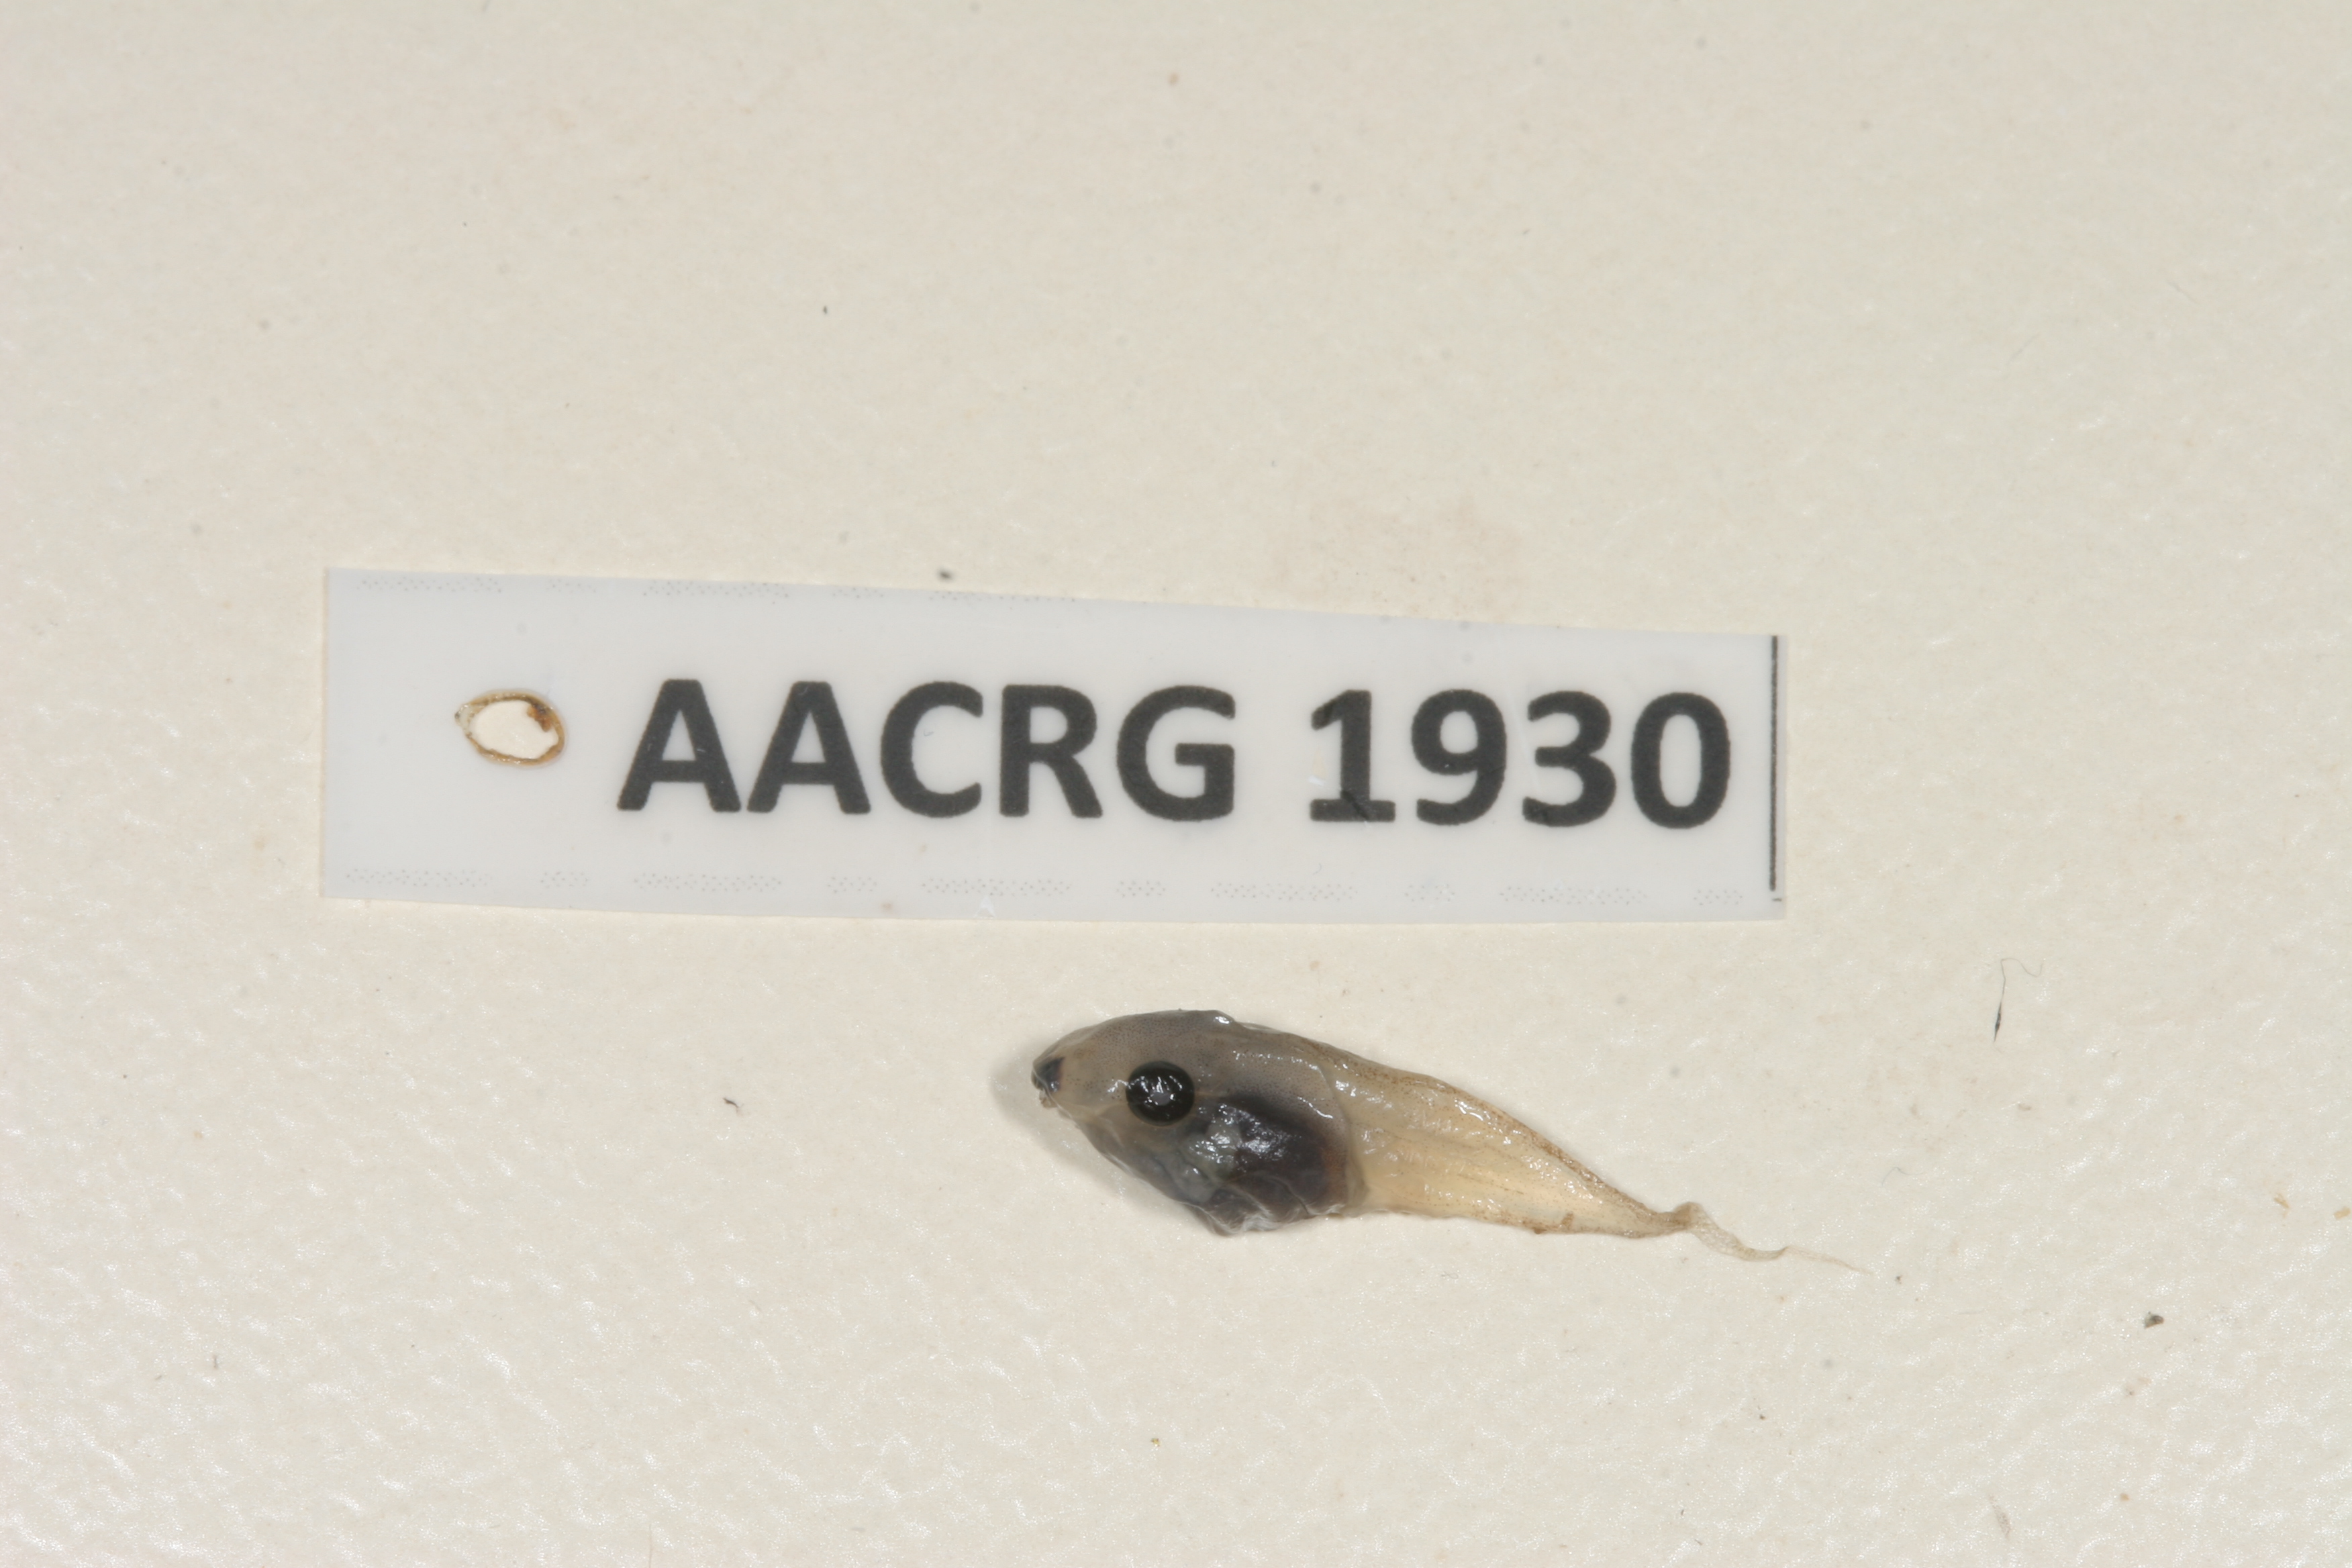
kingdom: Animalia
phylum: Chordata
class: Amphibia
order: Anura
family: Hyperoliidae
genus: Kassina
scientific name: Kassina senegalensis
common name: Senegal land frog
